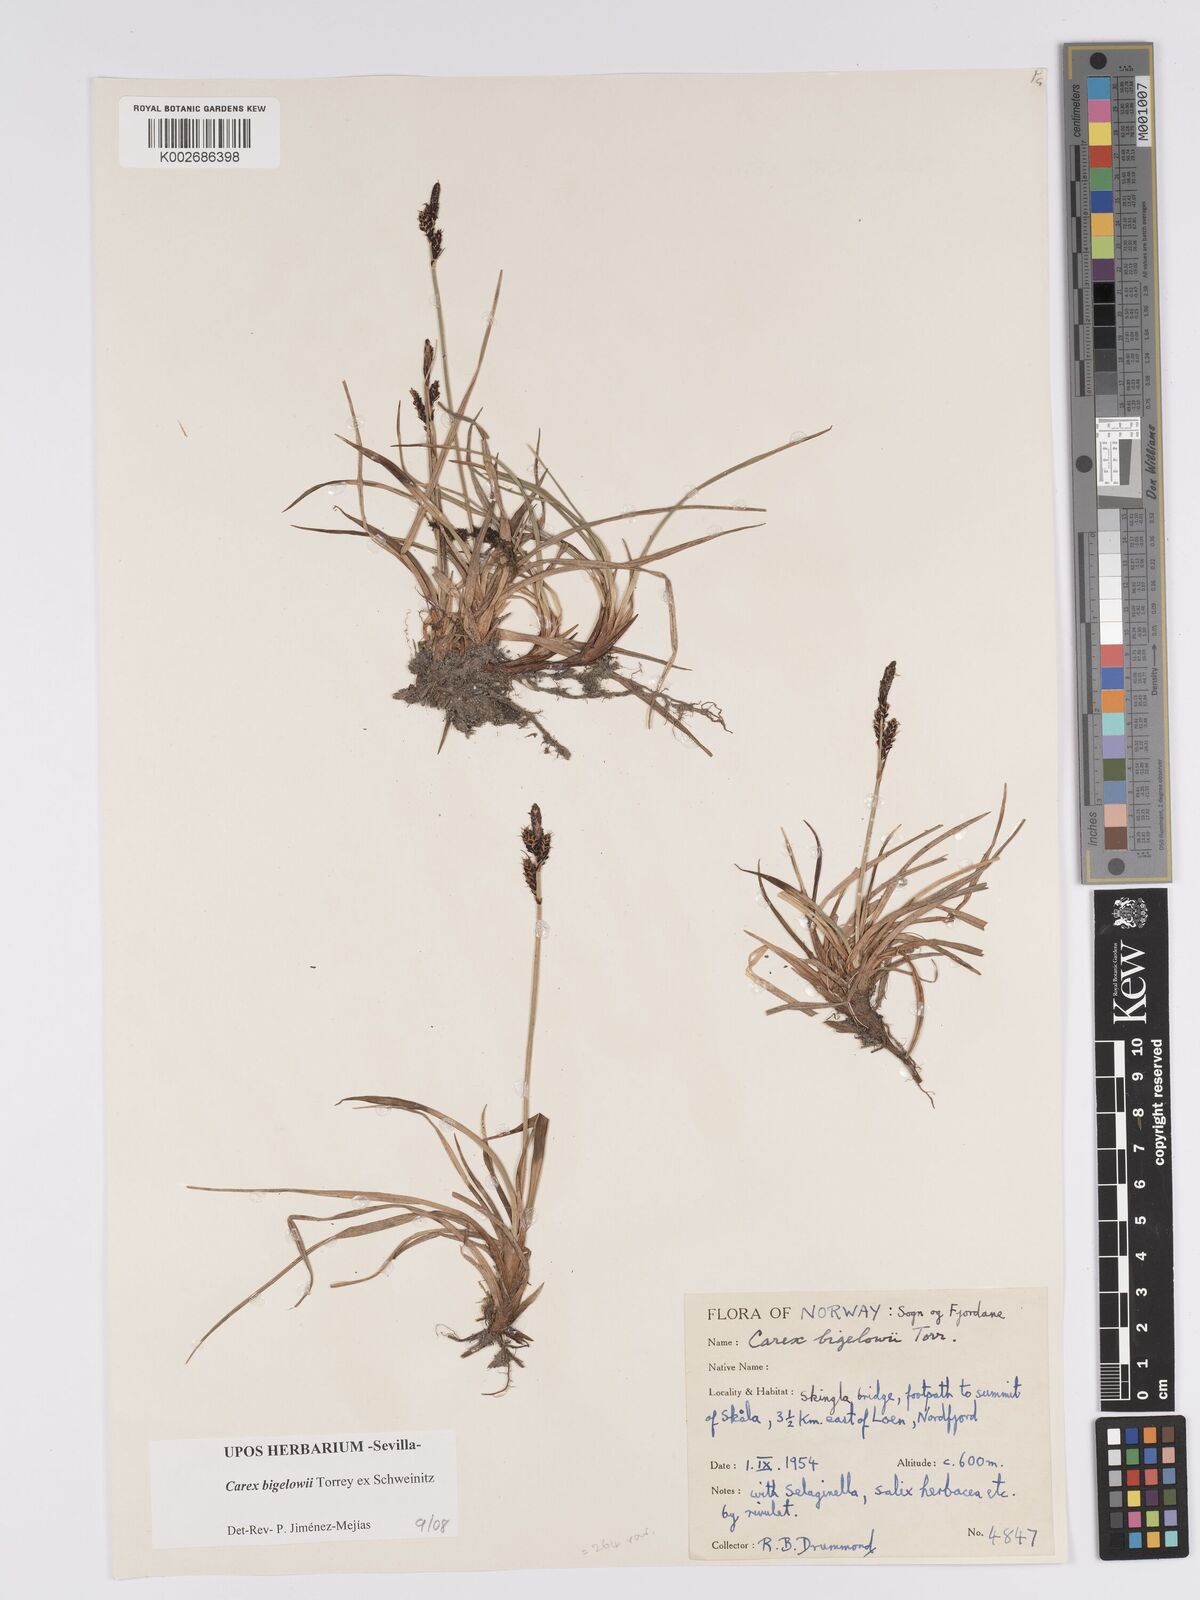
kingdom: Plantae
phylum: Tracheophyta
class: Liliopsida
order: Poales
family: Cyperaceae
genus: Carex
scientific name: Carex bigelowii
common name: Stiff sedge
